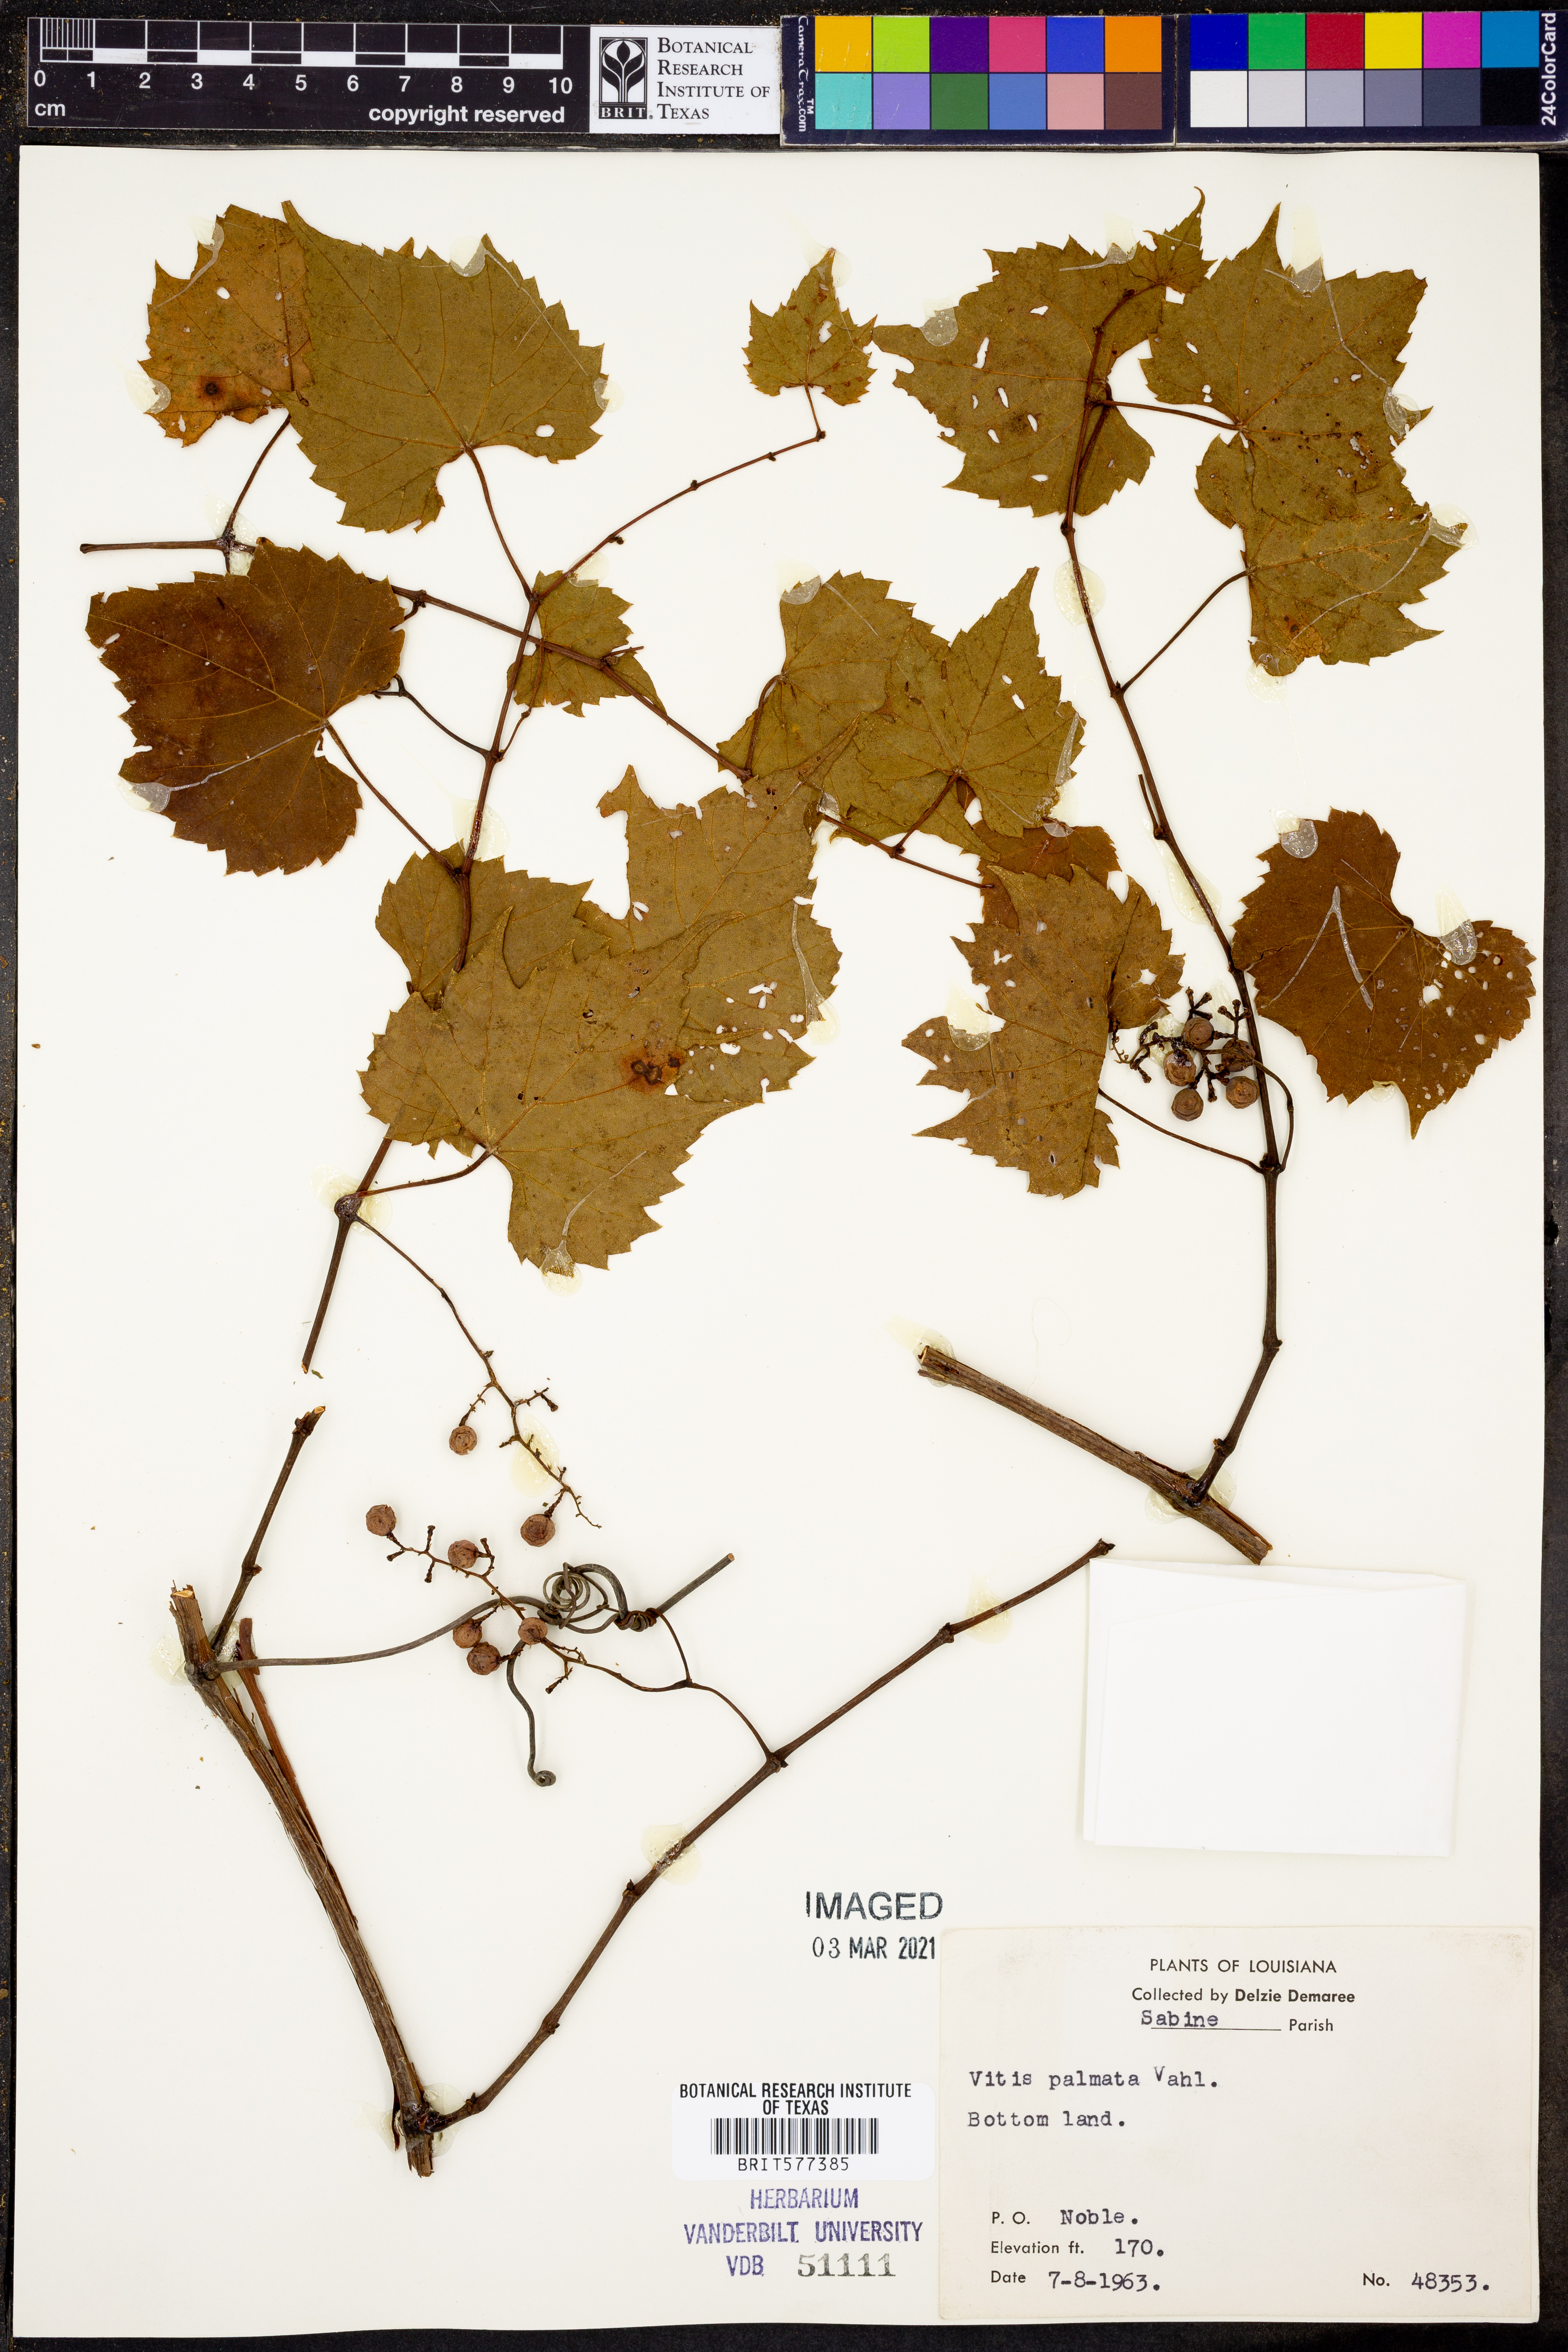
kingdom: Plantae
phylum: Tracheophyta
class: Magnoliopsida
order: Vitales
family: Vitaceae
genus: Vitis
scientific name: Vitis palmata
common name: Catbird grape
